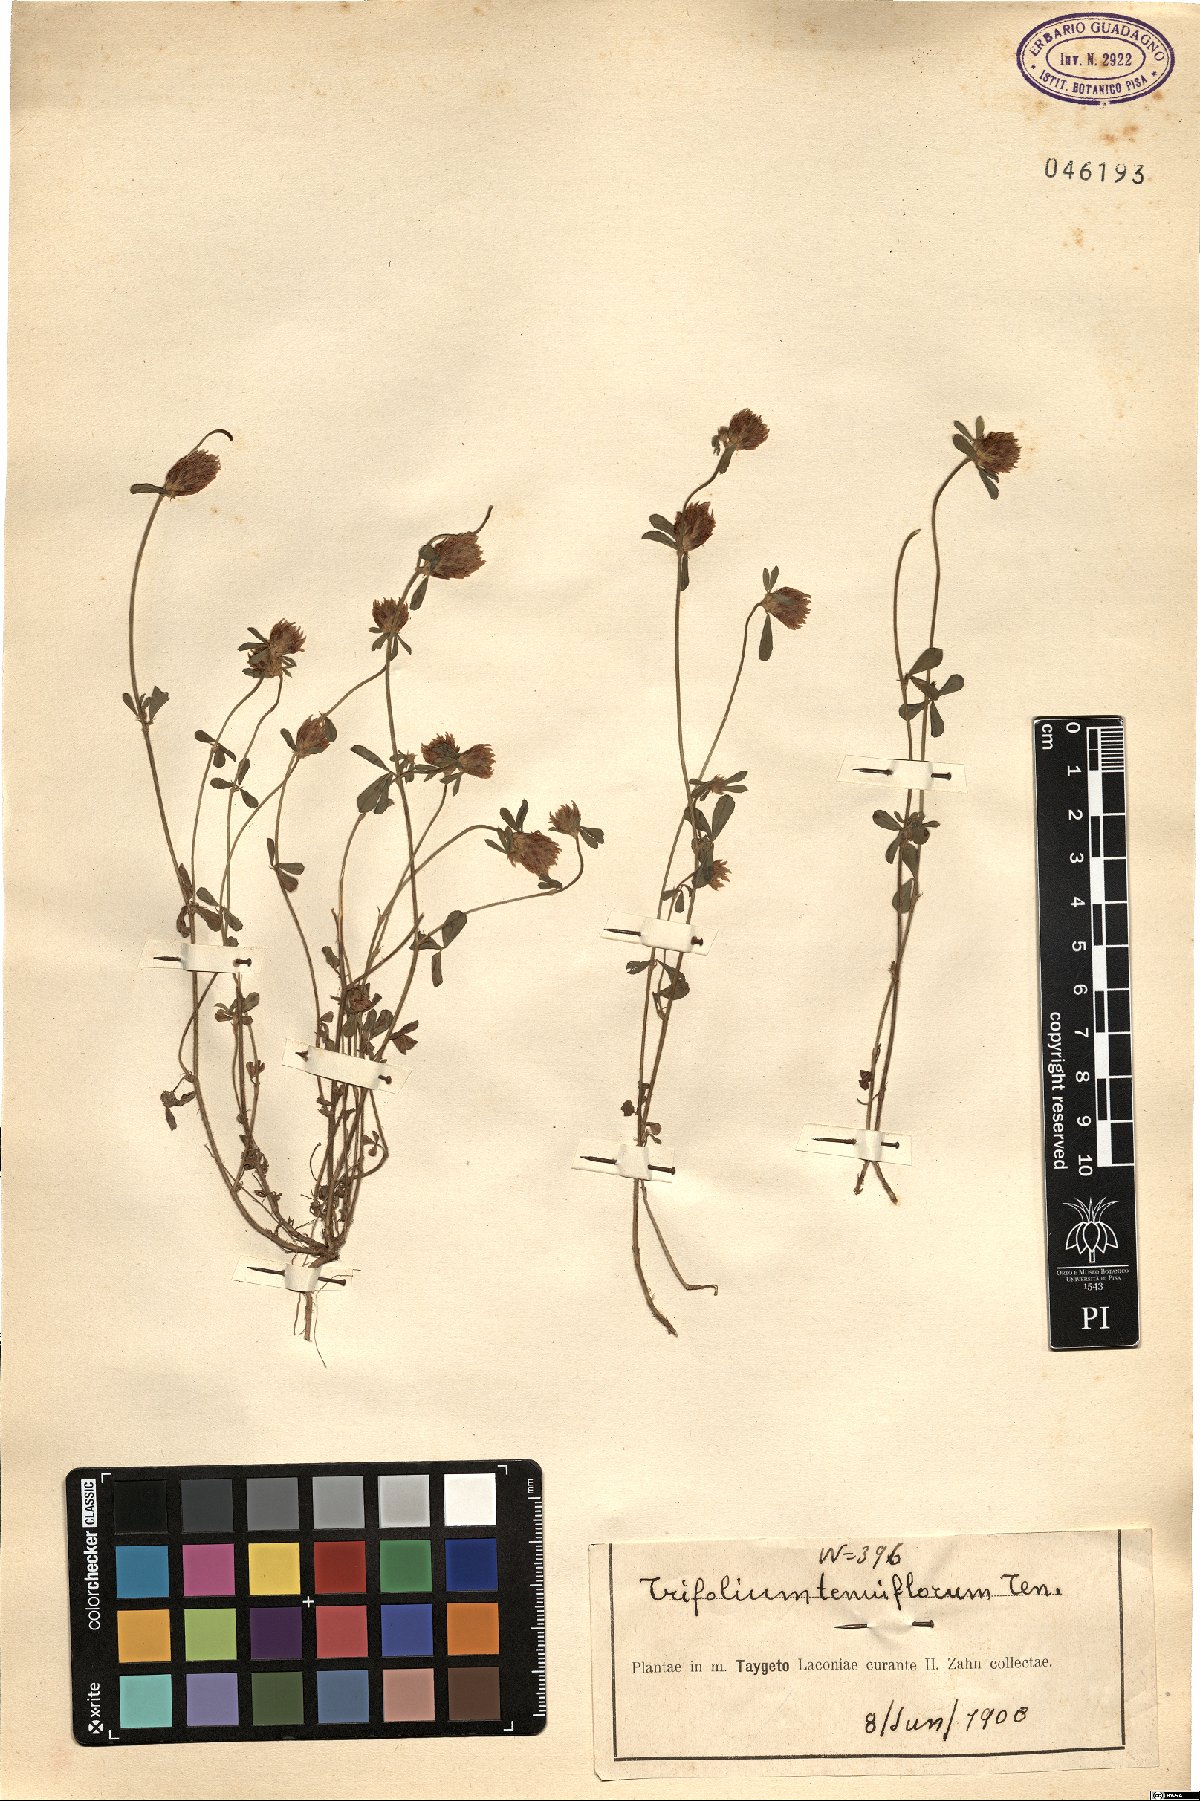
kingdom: Plantae
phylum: Tracheophyta
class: Magnoliopsida
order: Fabales
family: Fabaceae
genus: Trifolium
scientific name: Trifolium striatum
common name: Knotted clover
